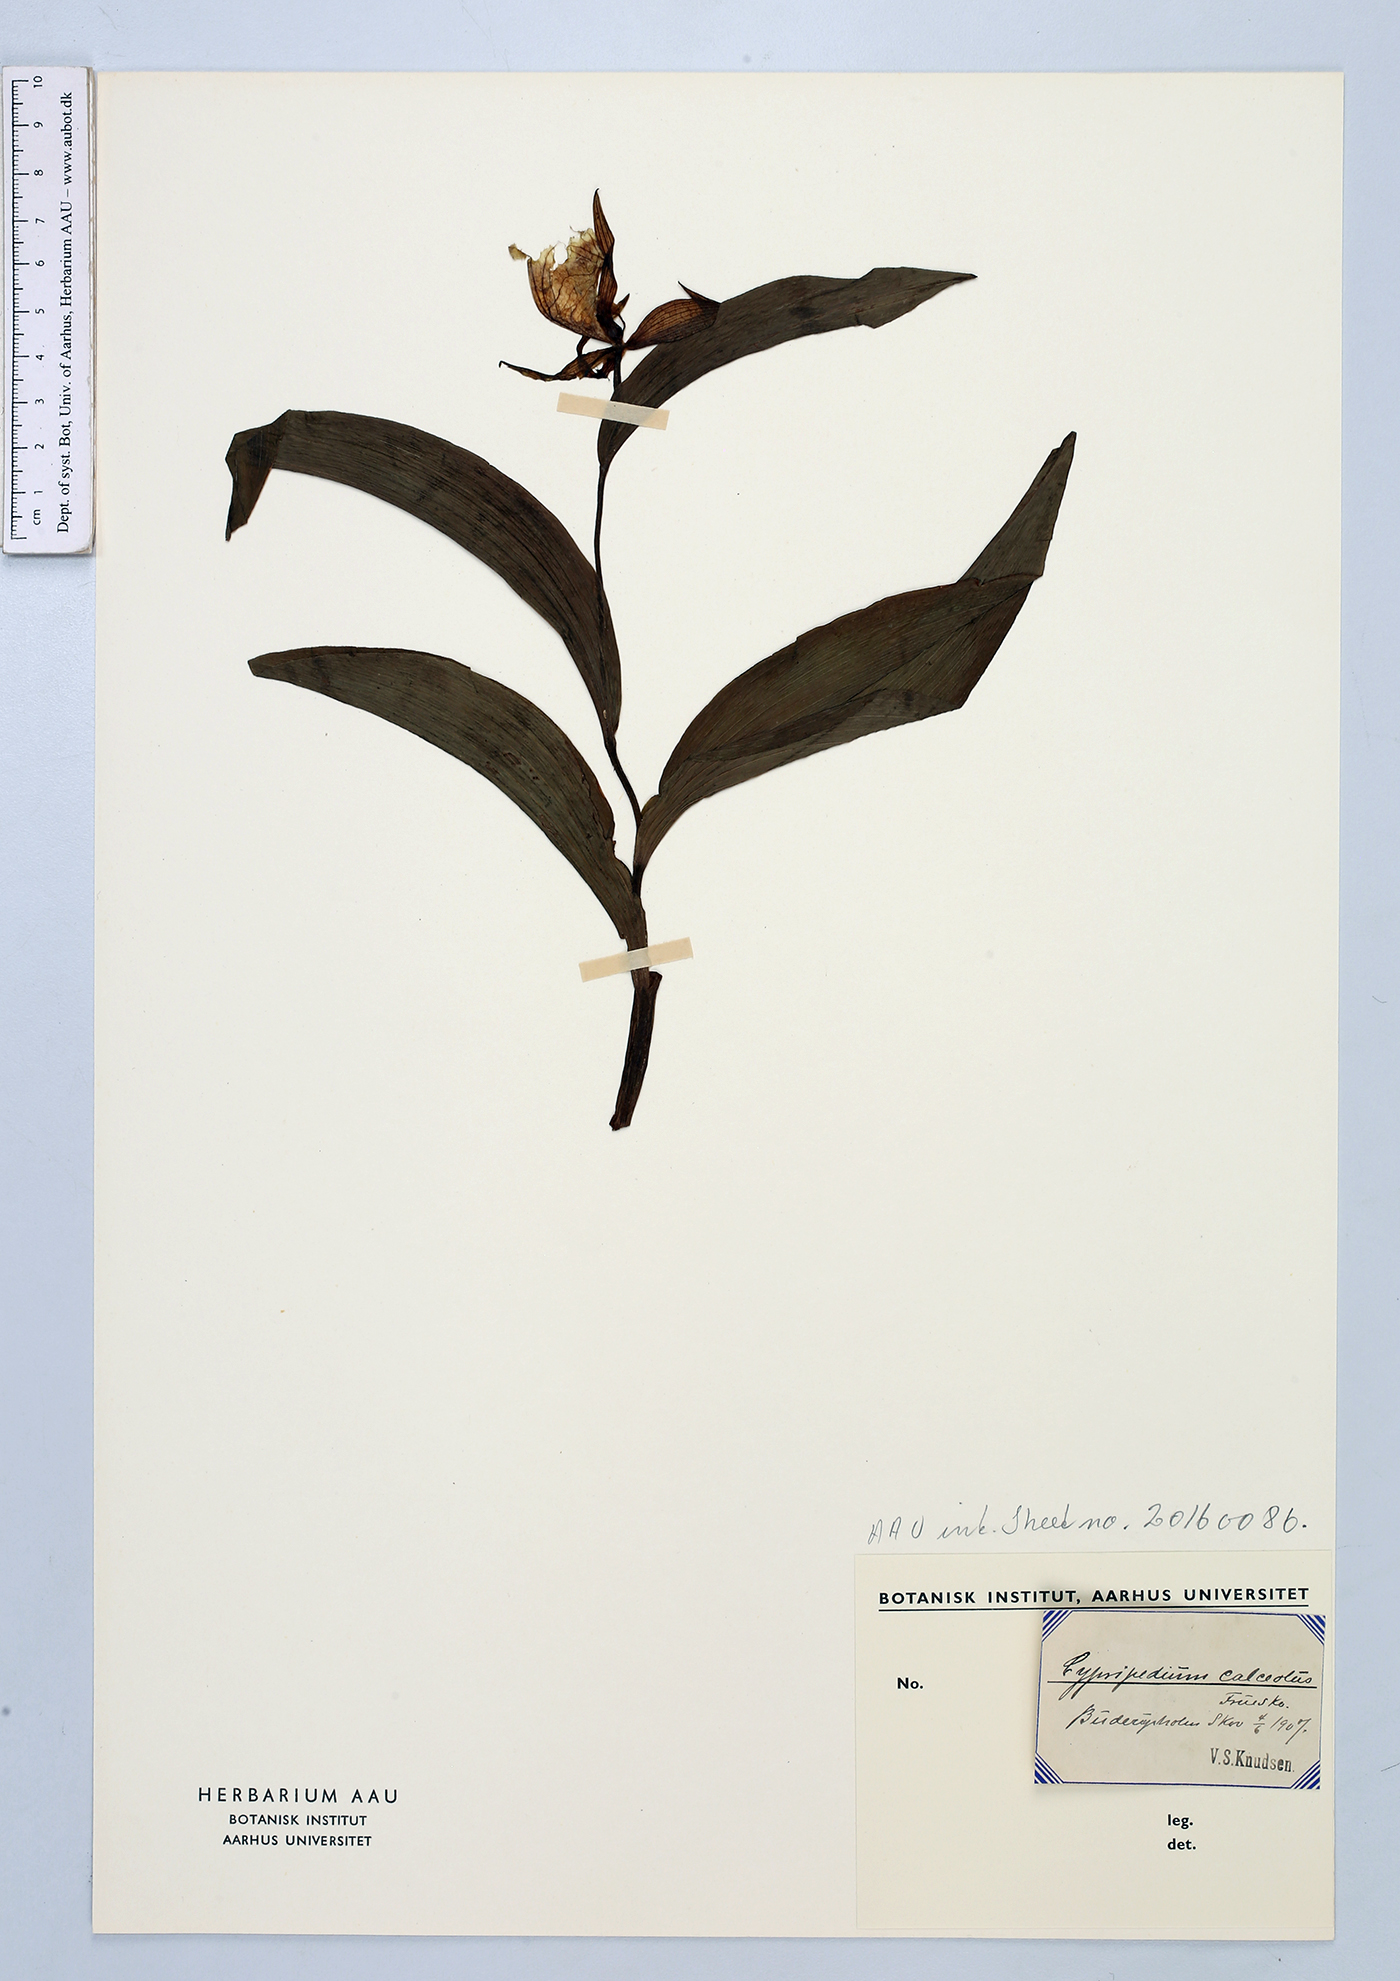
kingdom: Plantae
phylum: Tracheophyta
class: Liliopsida
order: Asparagales
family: Orchidaceae
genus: Cypripedium
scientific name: Cypripedium calceolus
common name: Lady's-slipper
